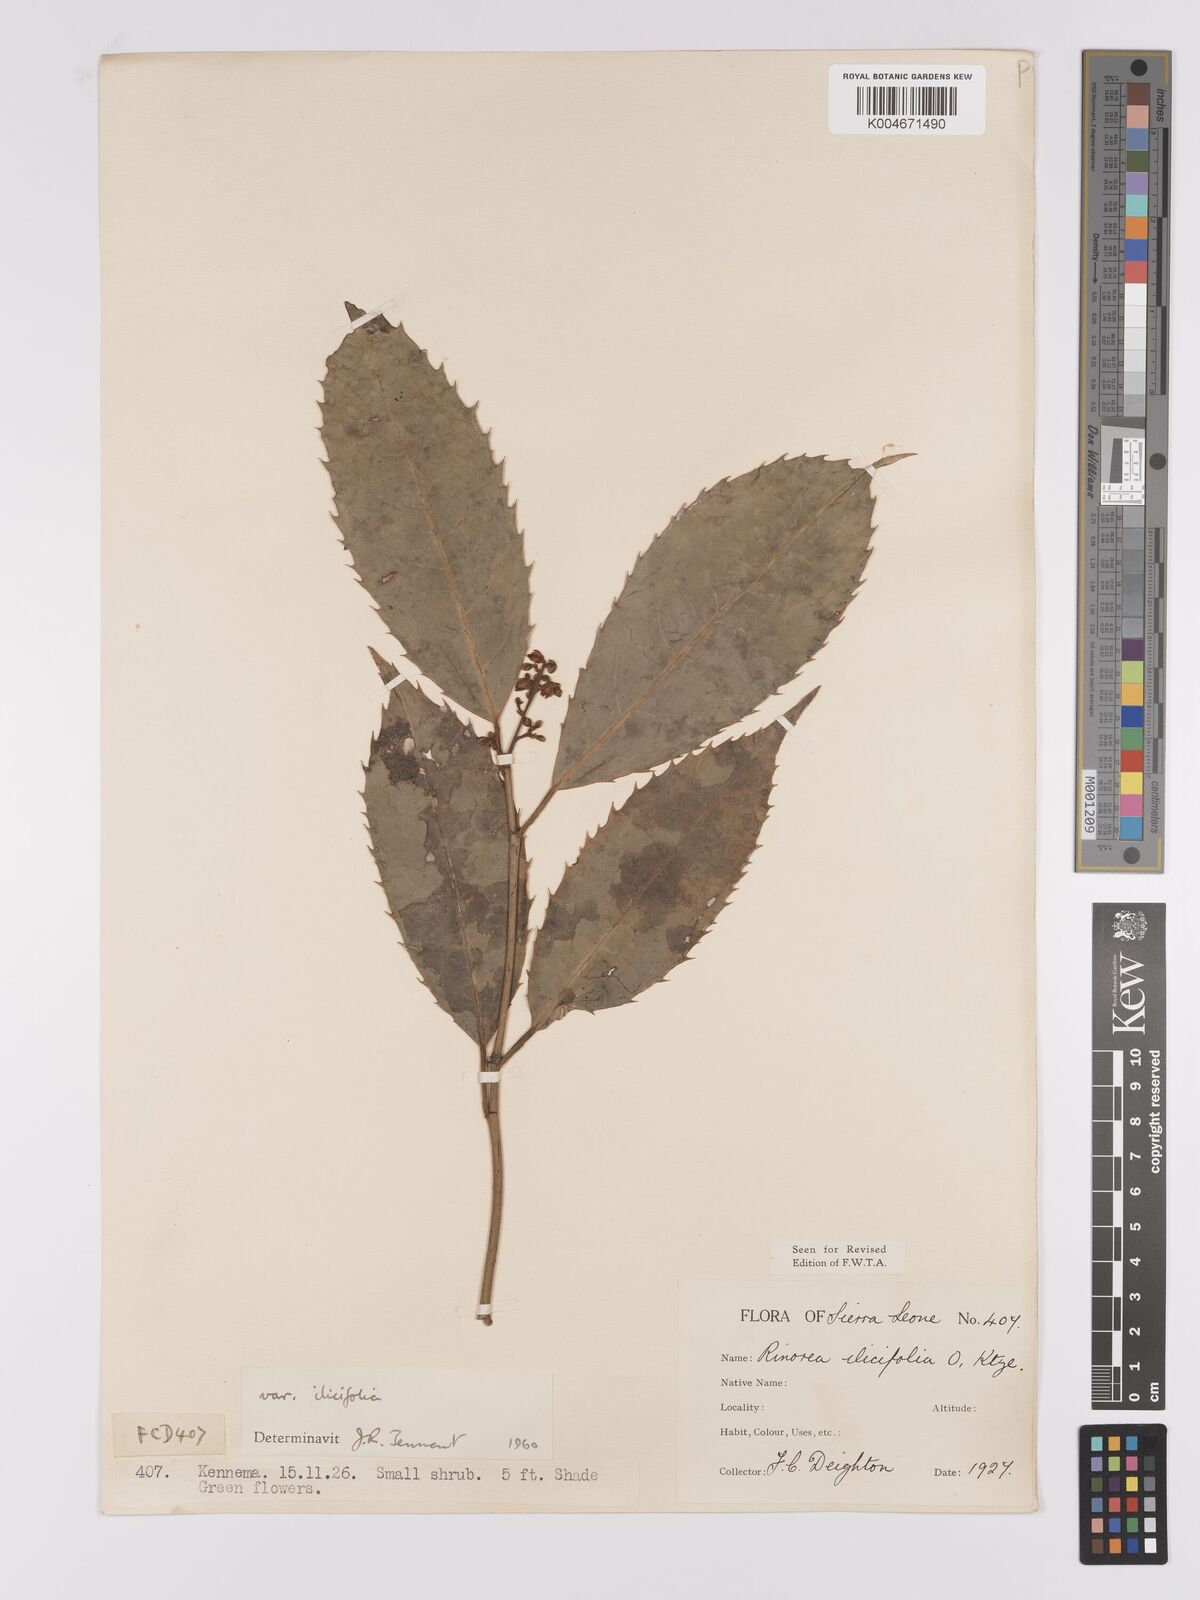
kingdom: Plantae
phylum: Tracheophyta
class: Magnoliopsida
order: Malpighiales
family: Violaceae
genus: Rinorea
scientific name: Rinorea ilicifolia
